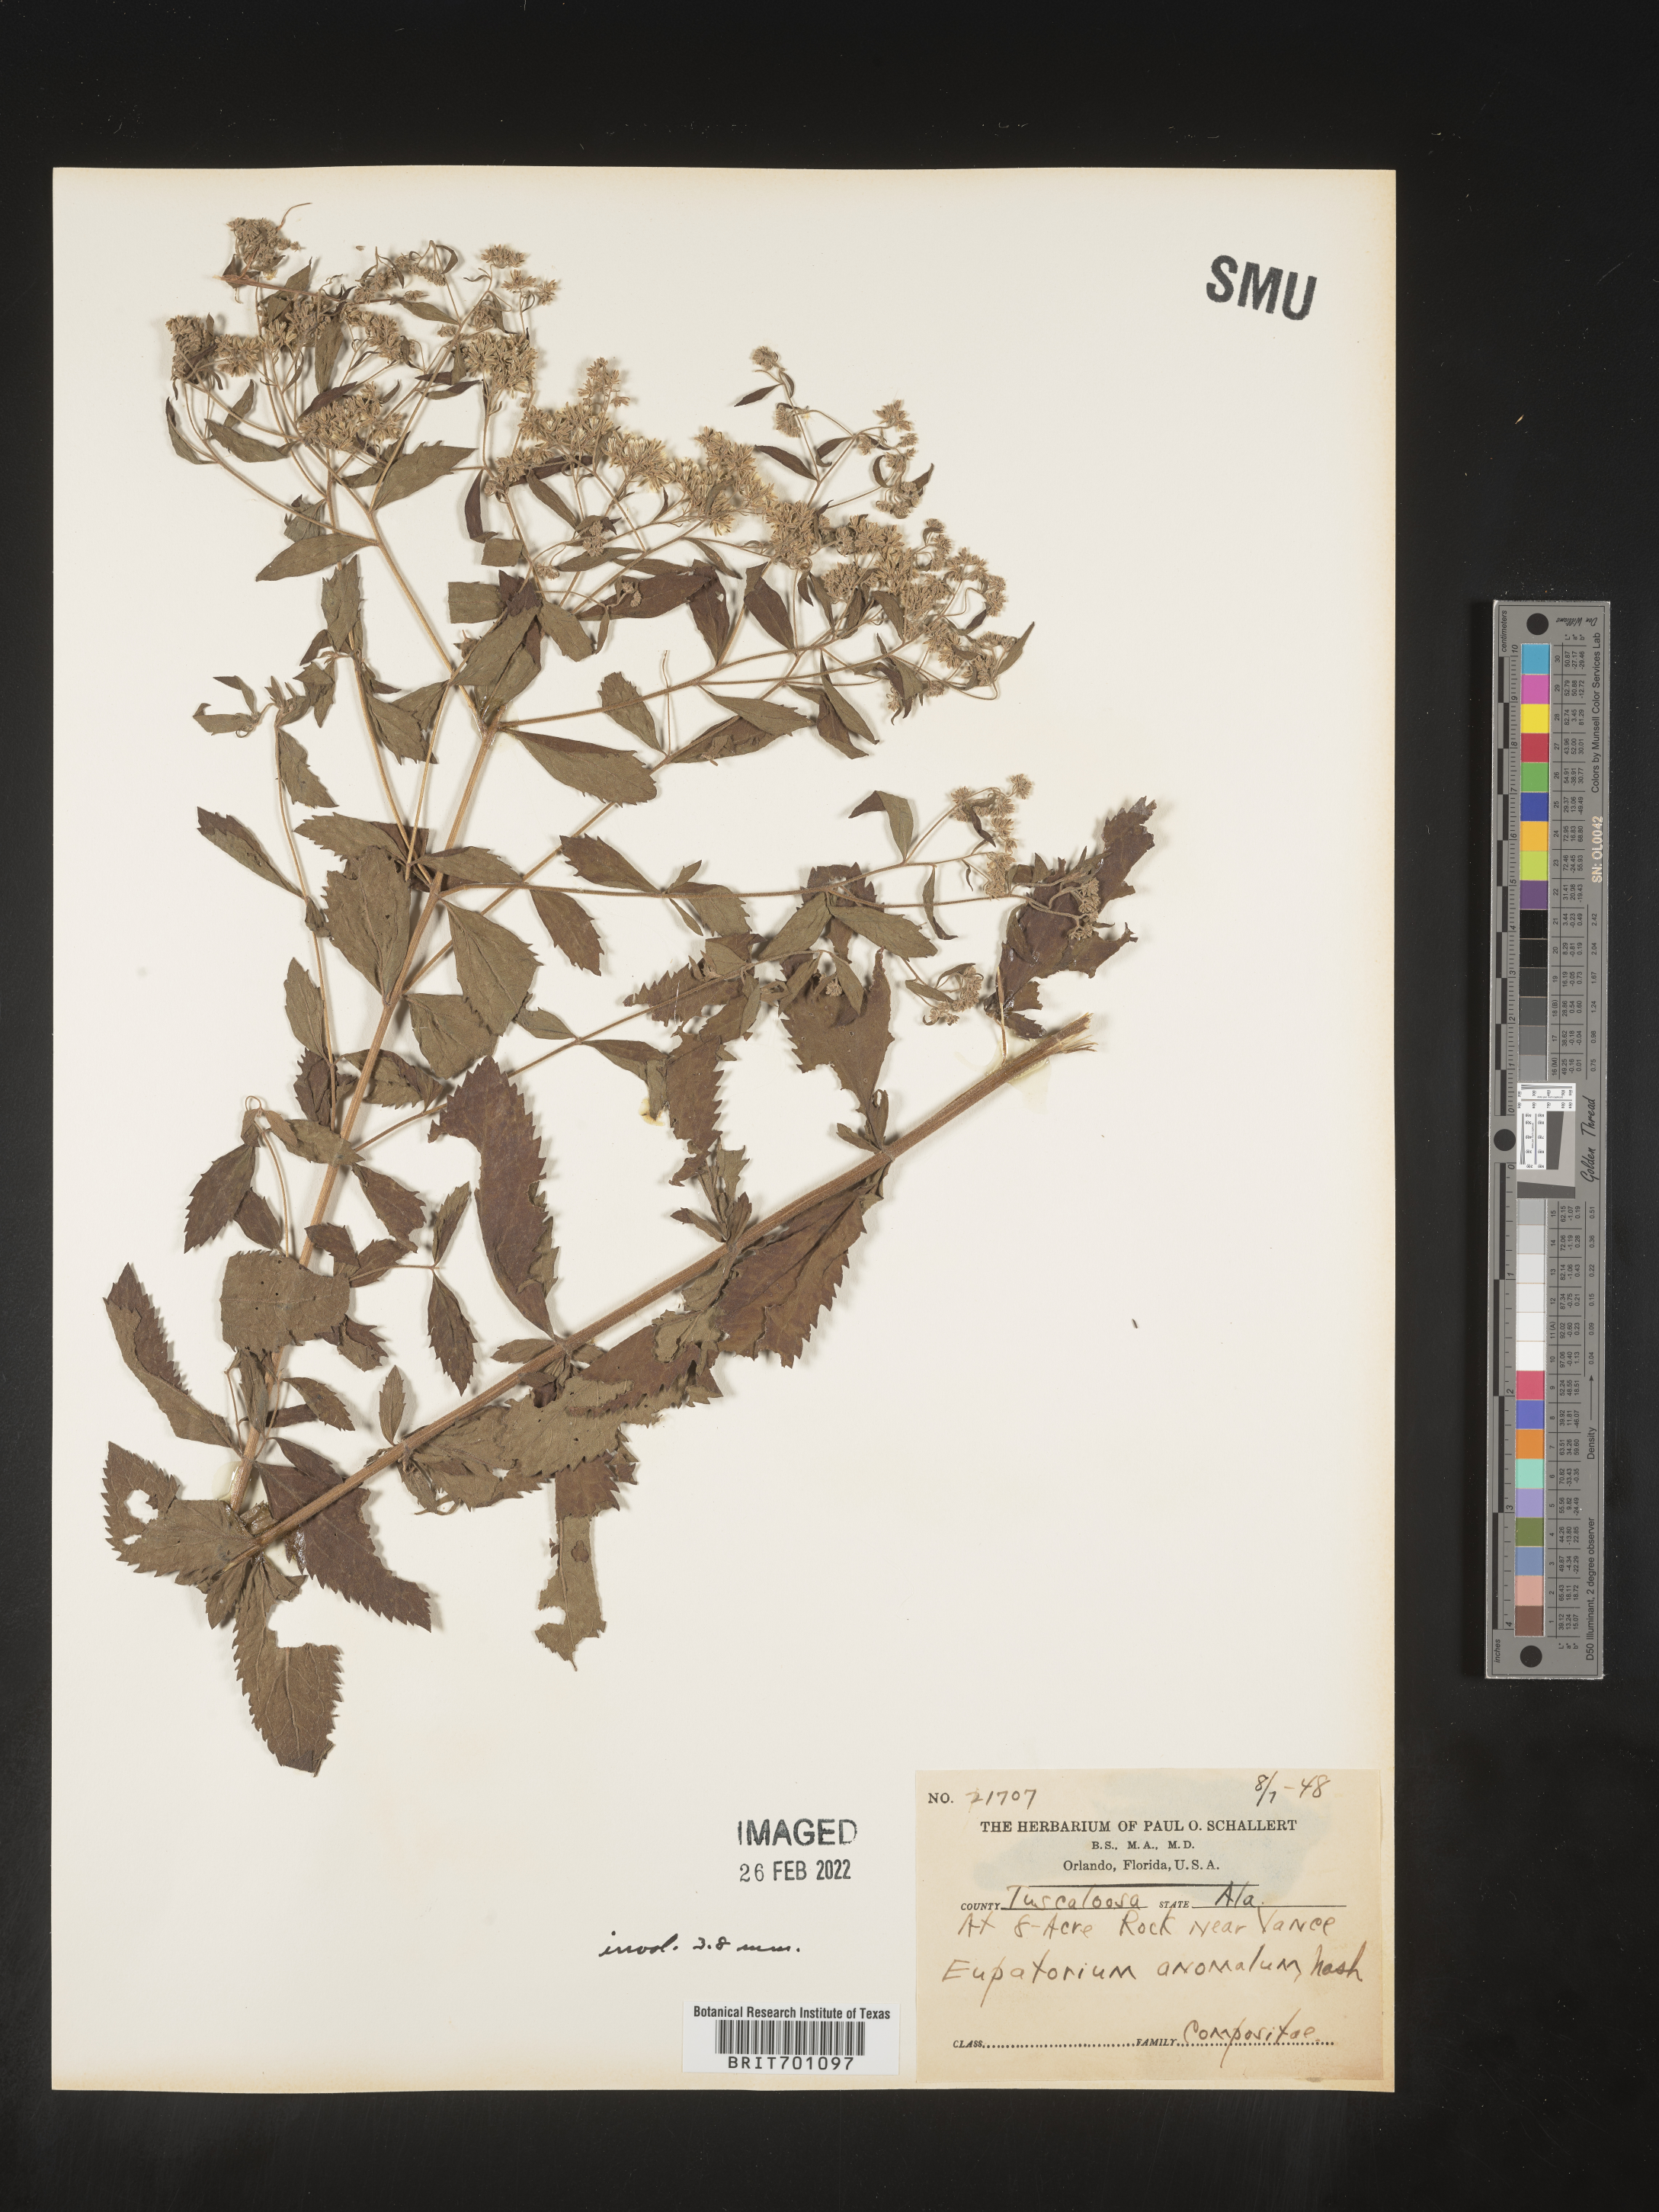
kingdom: Plantae
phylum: Tracheophyta
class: Magnoliopsida
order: Asterales
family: Asteraceae
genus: Eupatorium
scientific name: Eupatorium anomalum
